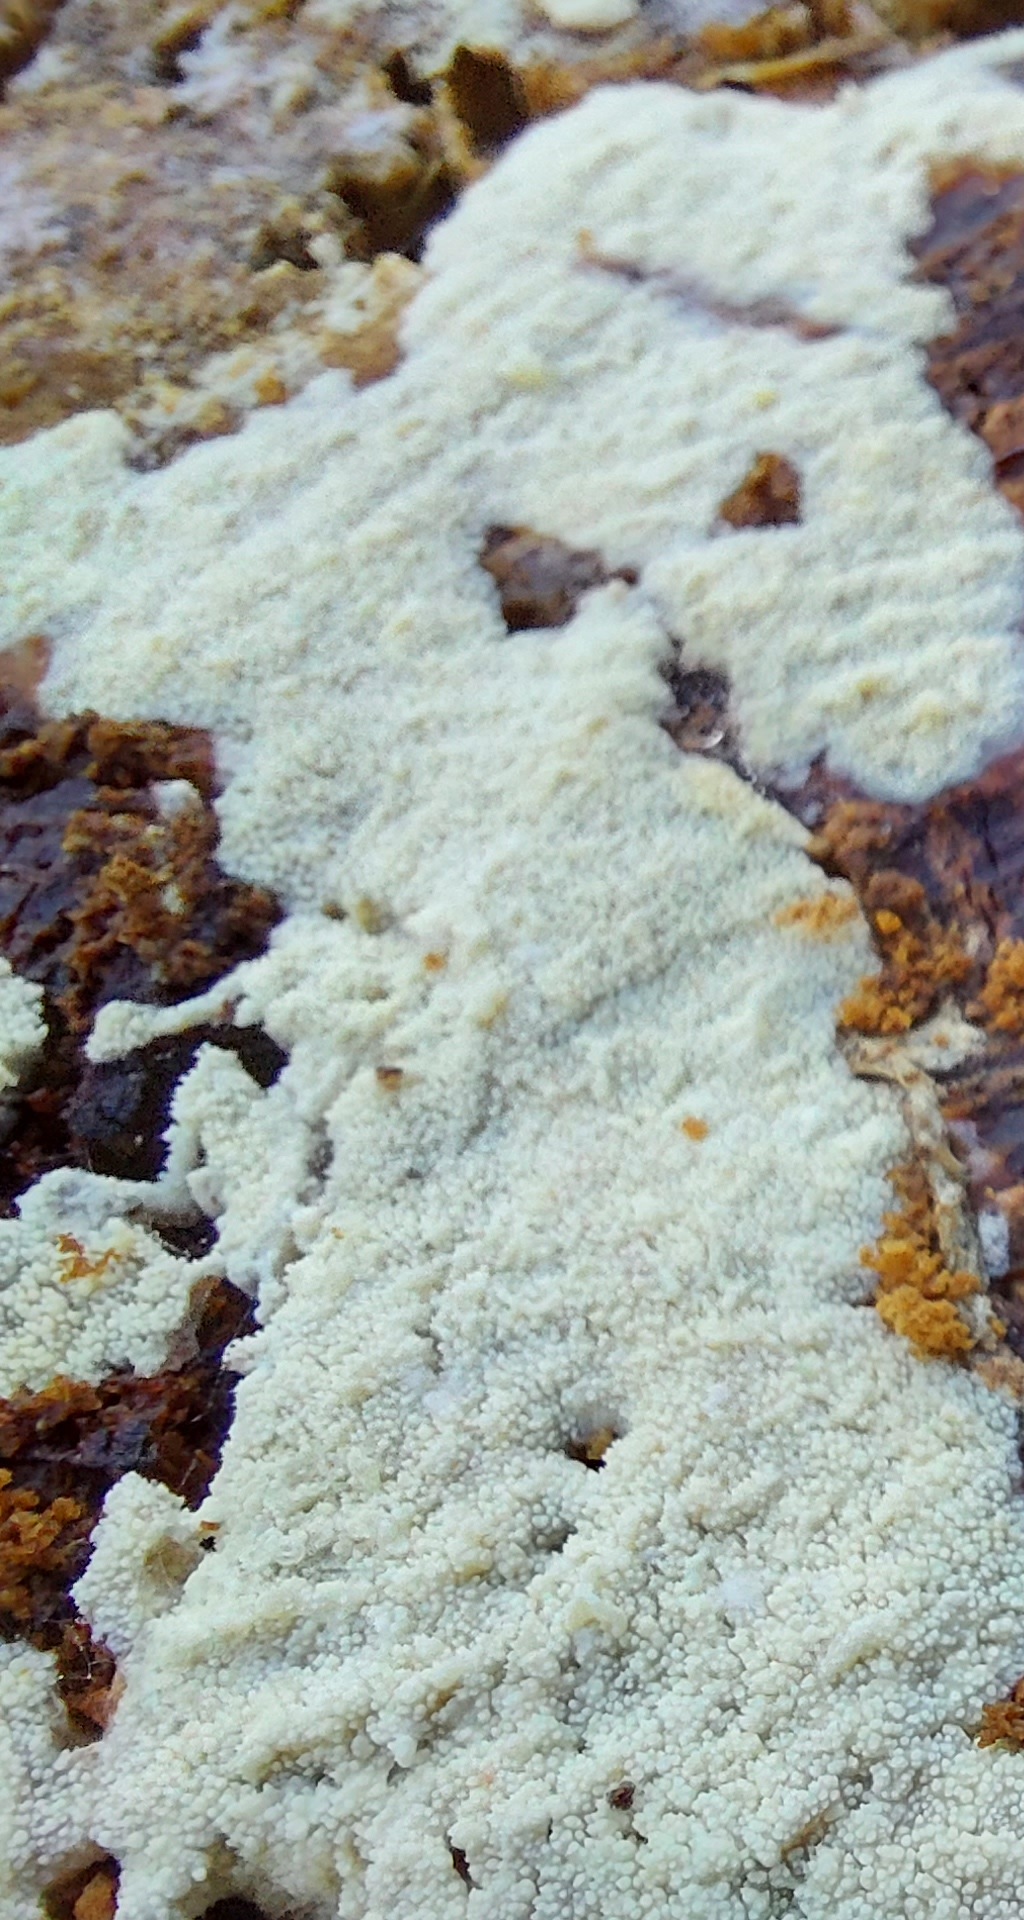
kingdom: Fungi
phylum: Basidiomycota
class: Agaricomycetes
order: Corticiales
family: Corticiaceae
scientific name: Corticiaceae
